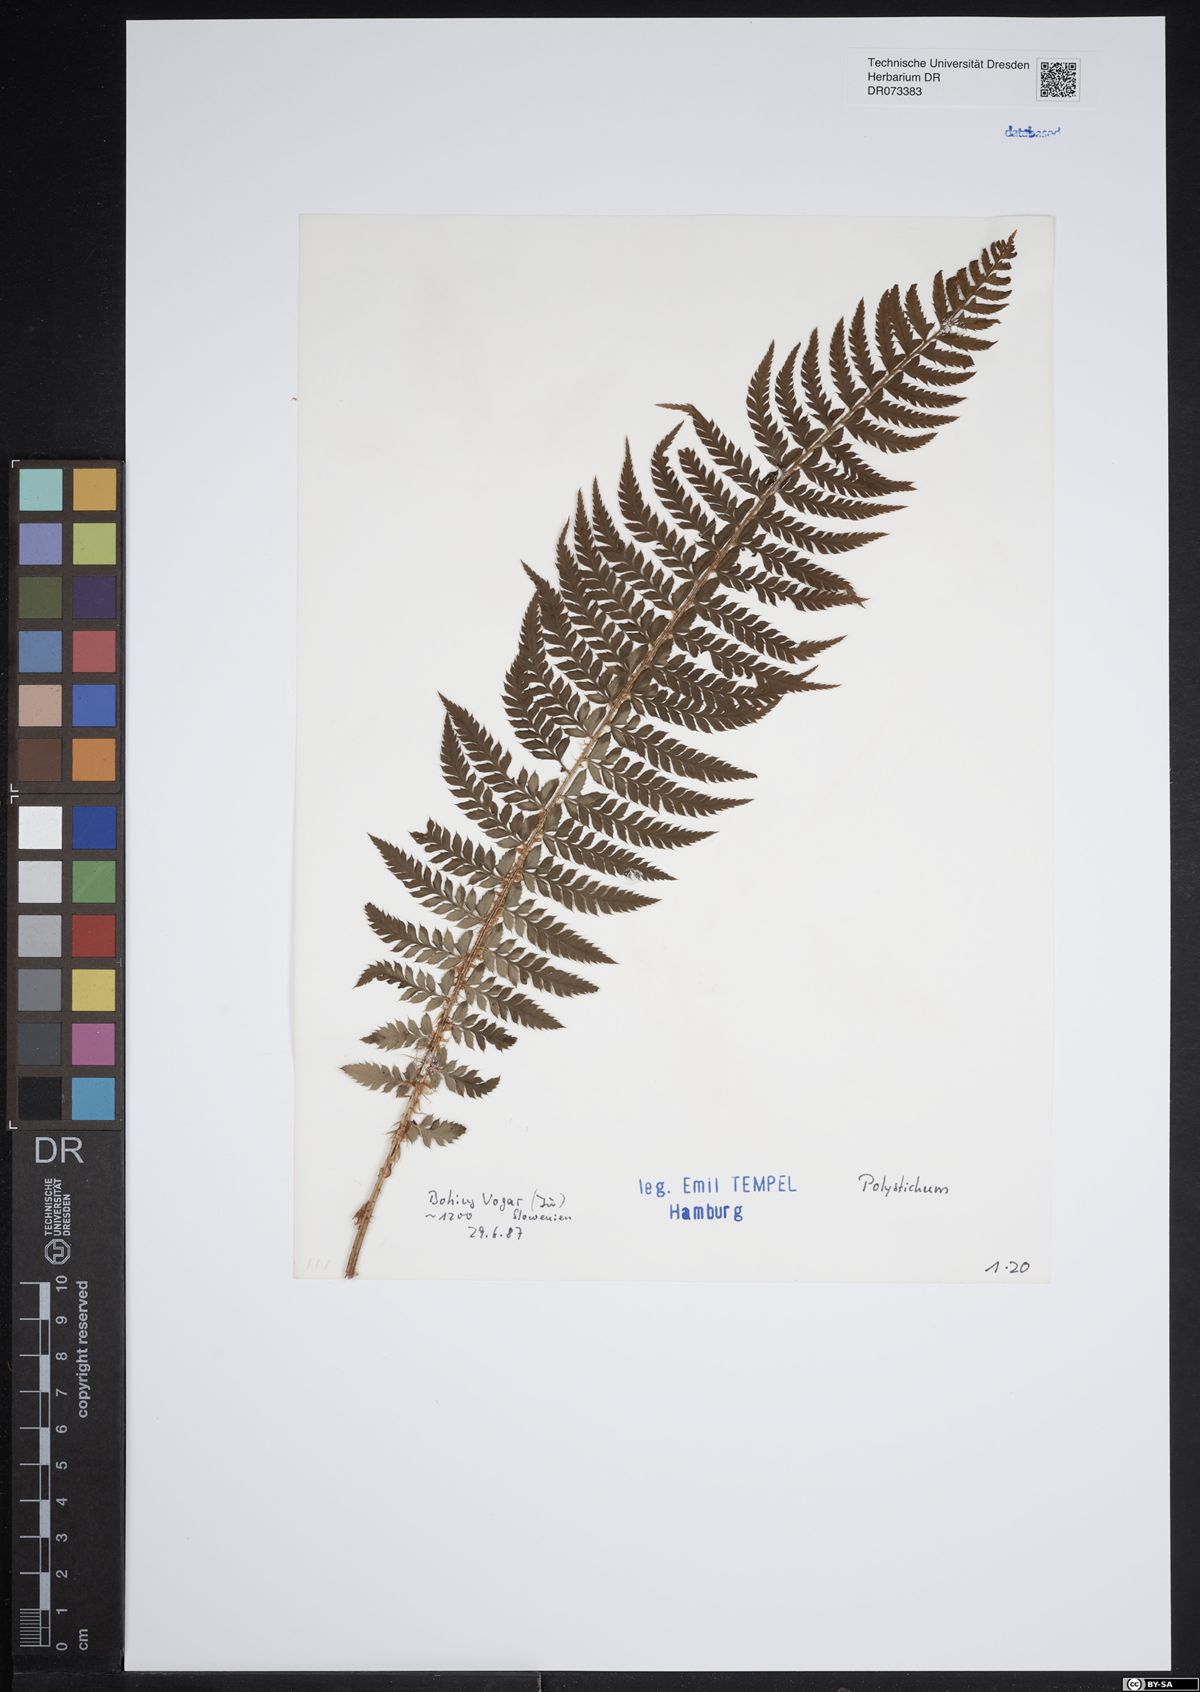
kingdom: Plantae
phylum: Tracheophyta
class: Polypodiopsida
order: Polypodiales
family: Dryopteridaceae
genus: Polystichum
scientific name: Polystichum
